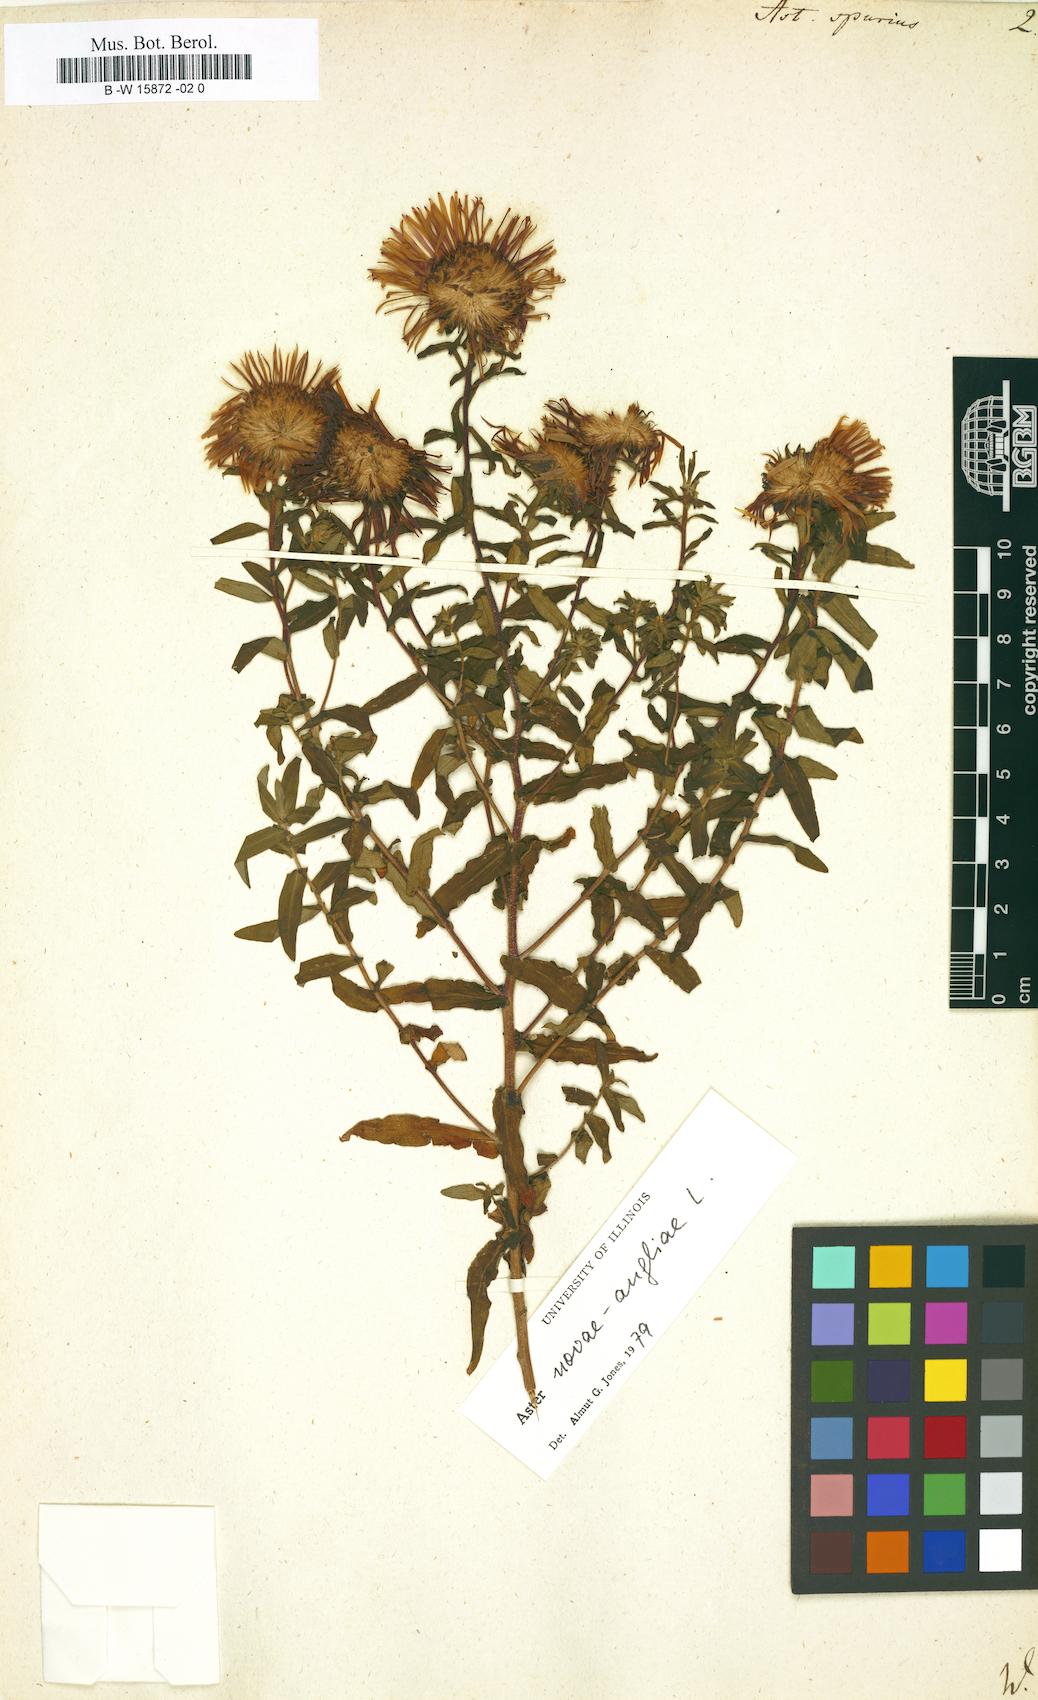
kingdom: Plantae
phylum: Tracheophyta
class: Magnoliopsida
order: Asterales
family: Asteraceae
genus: Symphyotrichum
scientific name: Symphyotrichum novae-angliae
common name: Michaelmas daisy
